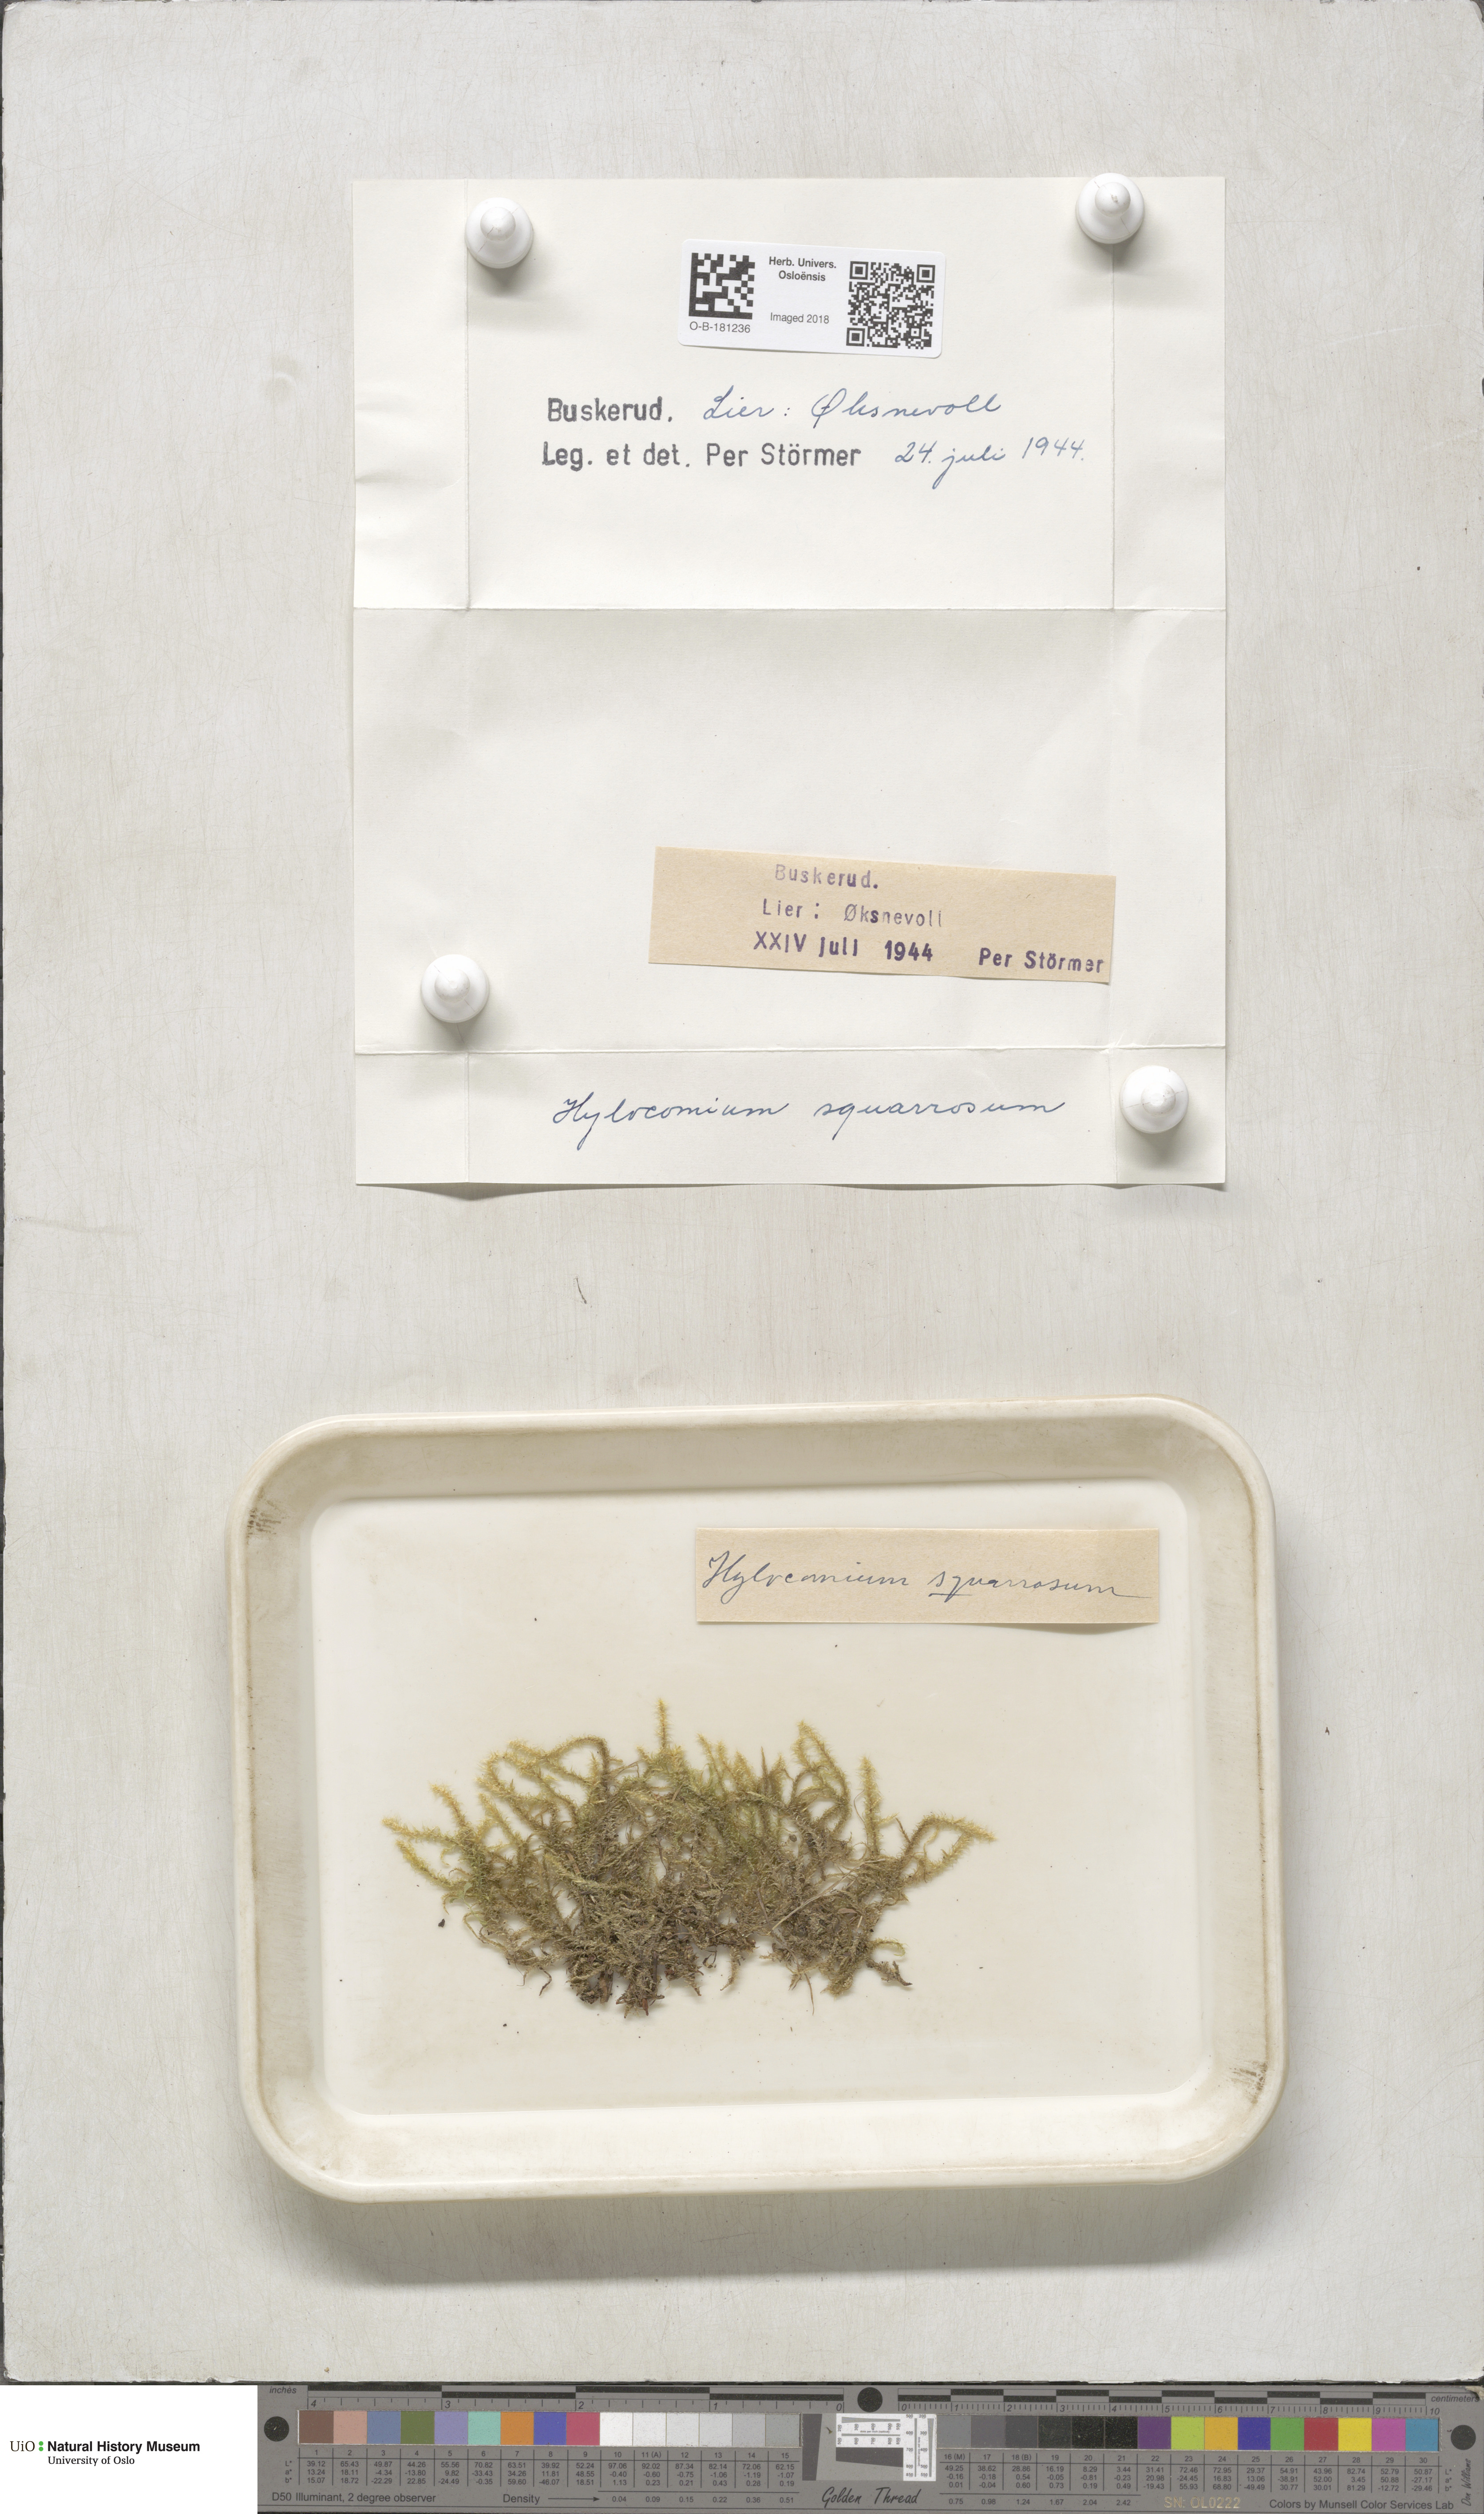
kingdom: Plantae
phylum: Bryophyta
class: Bryopsida
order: Hypnales
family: Hylocomiaceae
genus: Rhytidiadelphus
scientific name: Rhytidiadelphus squarrosus
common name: Springy turf-moss
